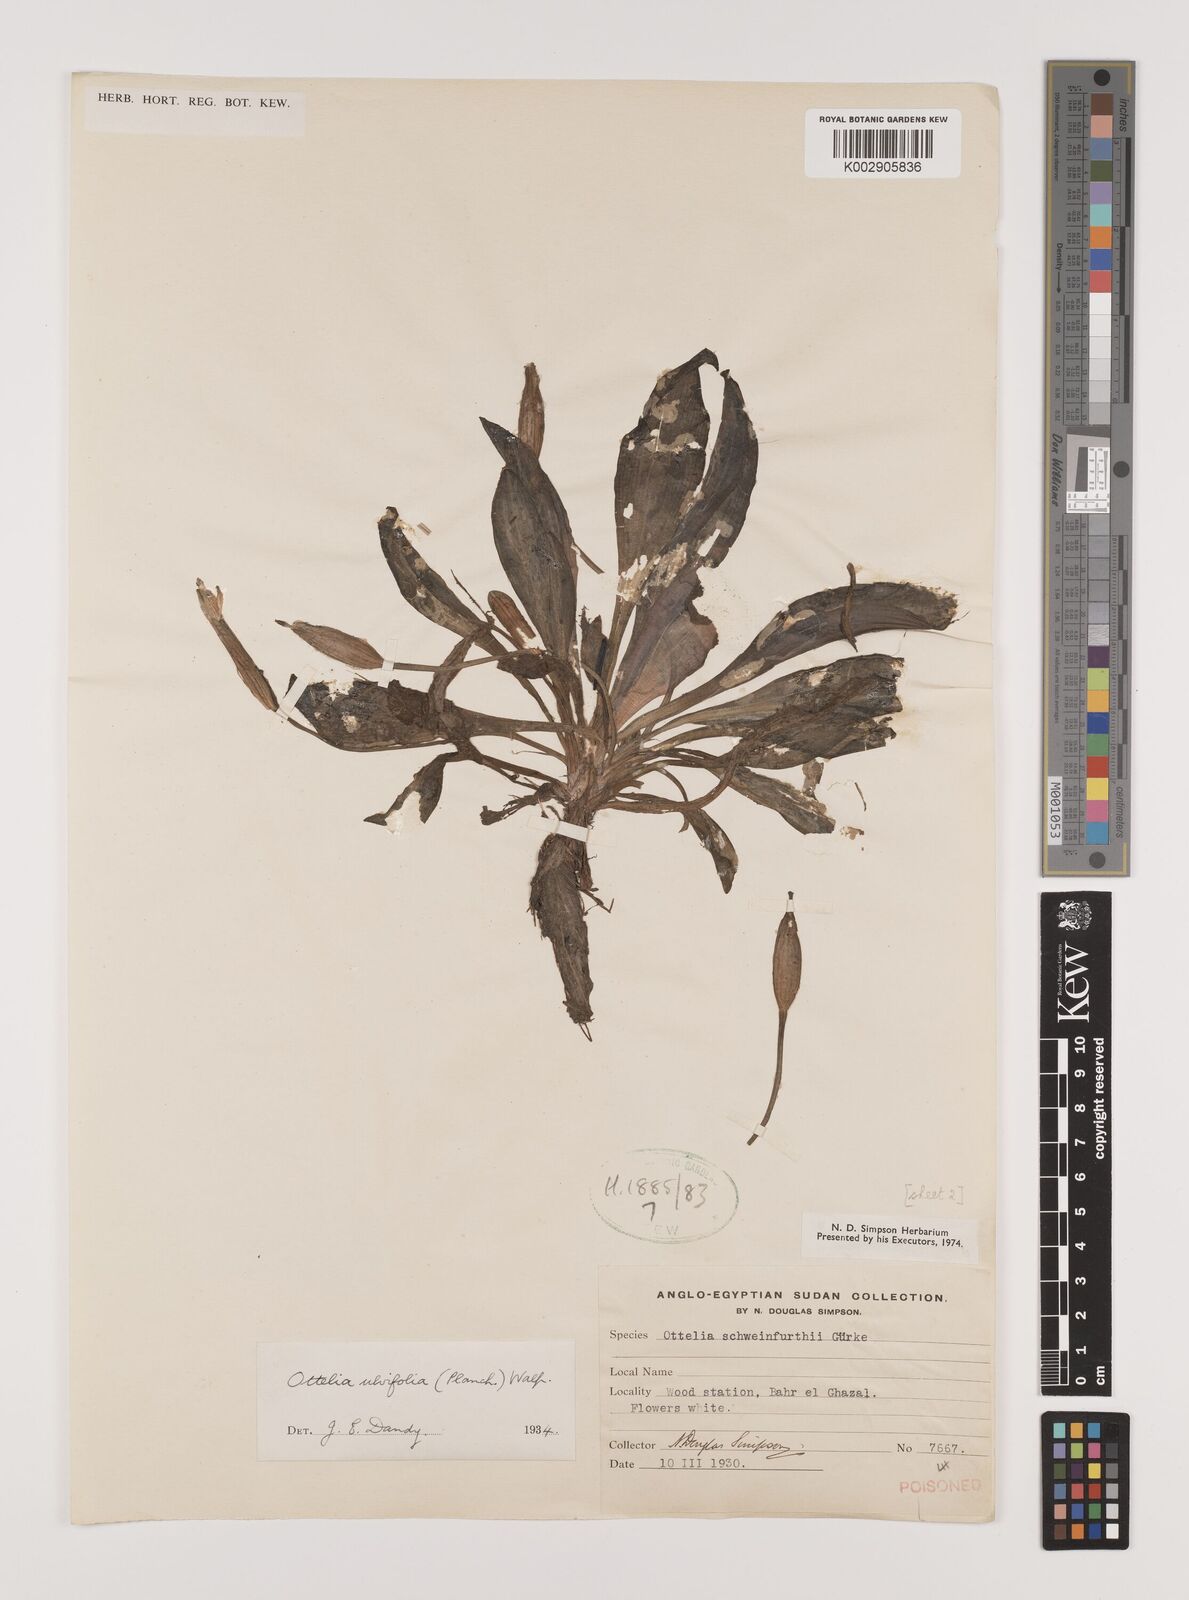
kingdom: Plantae
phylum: Tracheophyta
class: Liliopsida
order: Alismatales
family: Hydrocharitaceae
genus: Ottelia
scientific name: Ottelia ulvifolia
